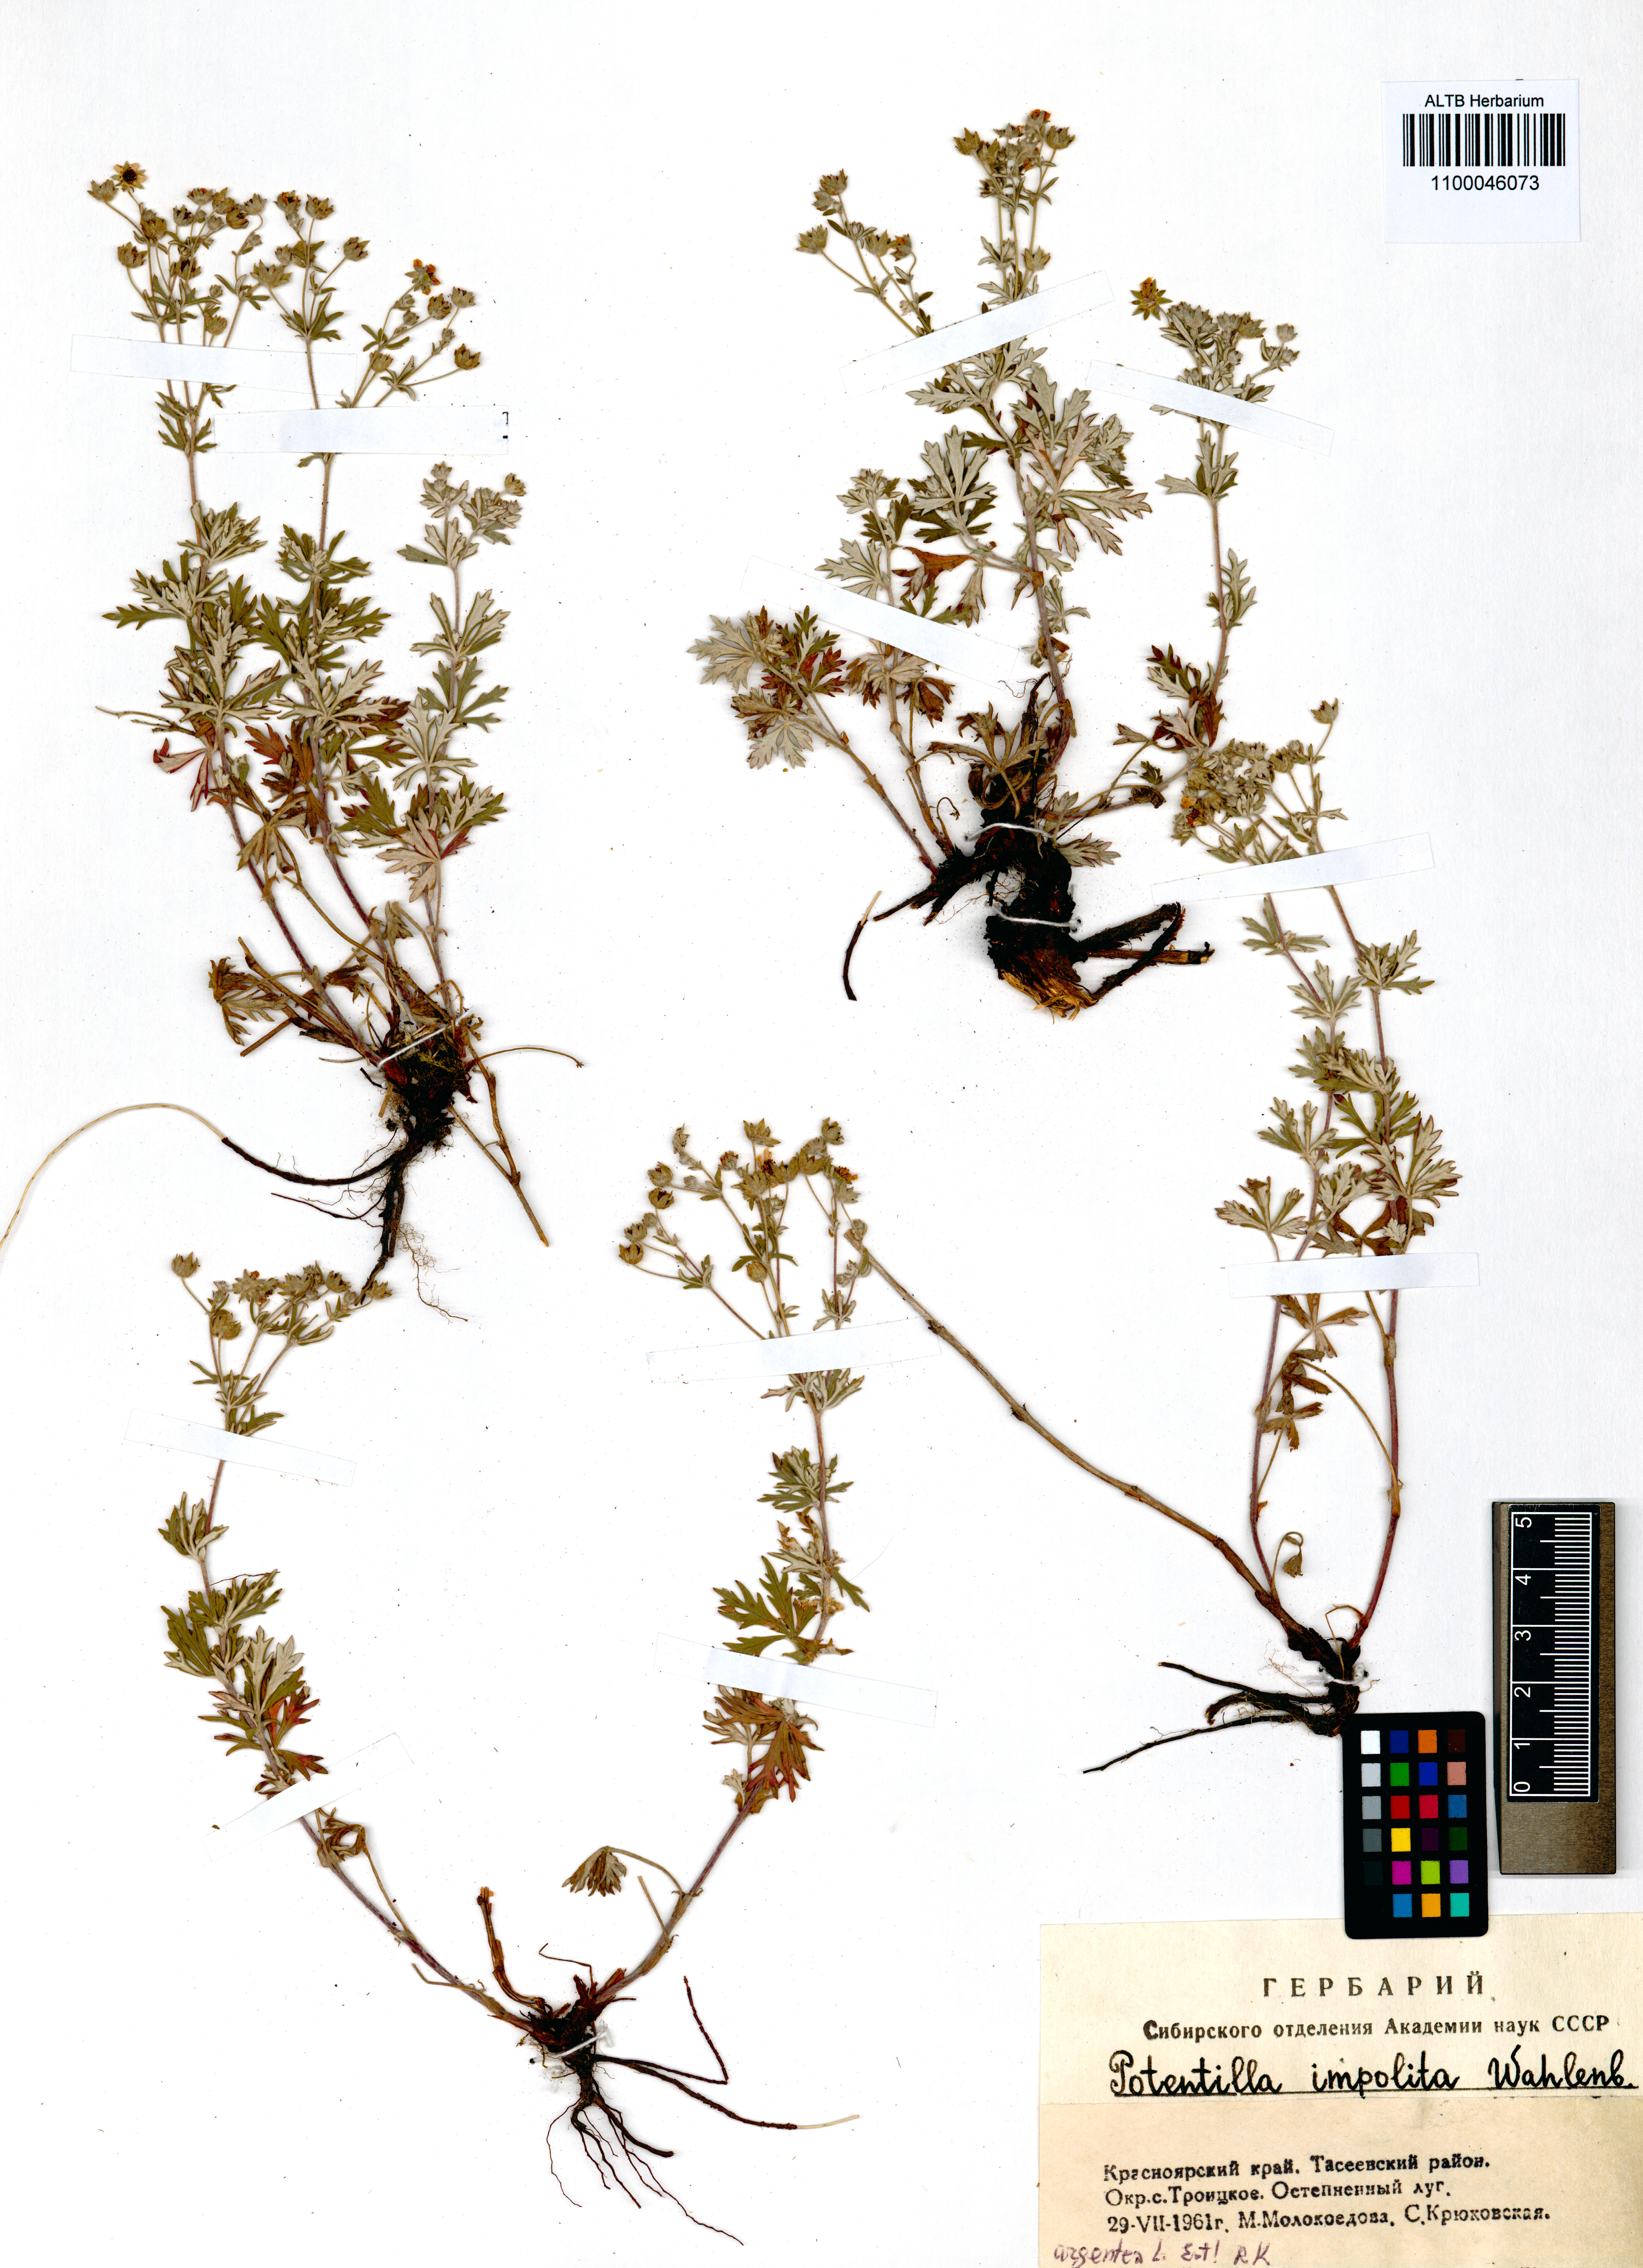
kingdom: Plantae
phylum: Tracheophyta
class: Magnoliopsida
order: Rosales
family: Rosaceae
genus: Potentilla
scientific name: Potentilla argentea
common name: Hoary cinquefoil
